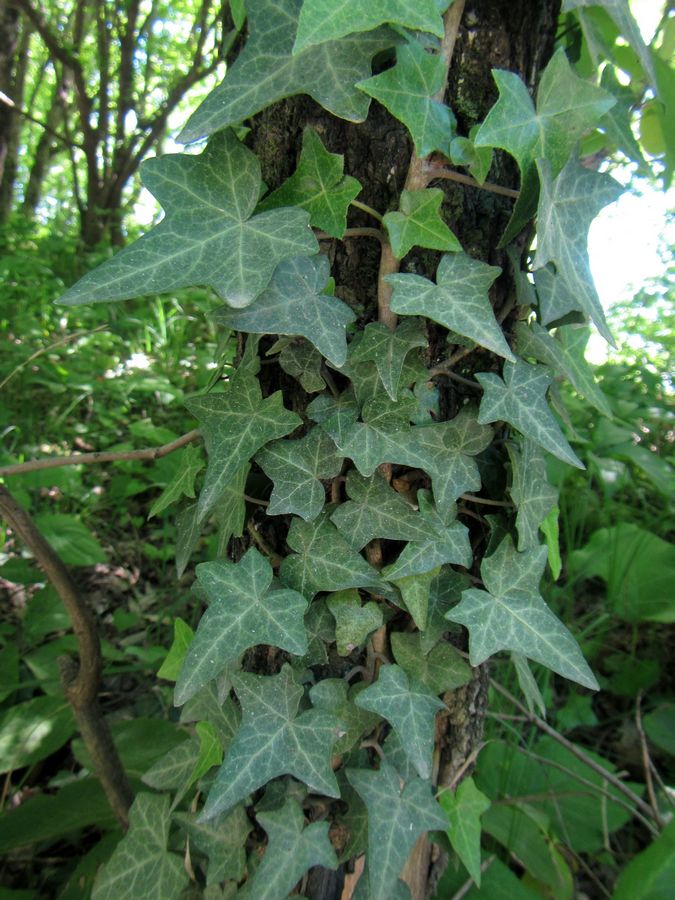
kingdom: Plantae
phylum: Tracheophyta
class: Magnoliopsida
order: Apiales
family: Araliaceae
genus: Hedera
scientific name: Hedera helix
